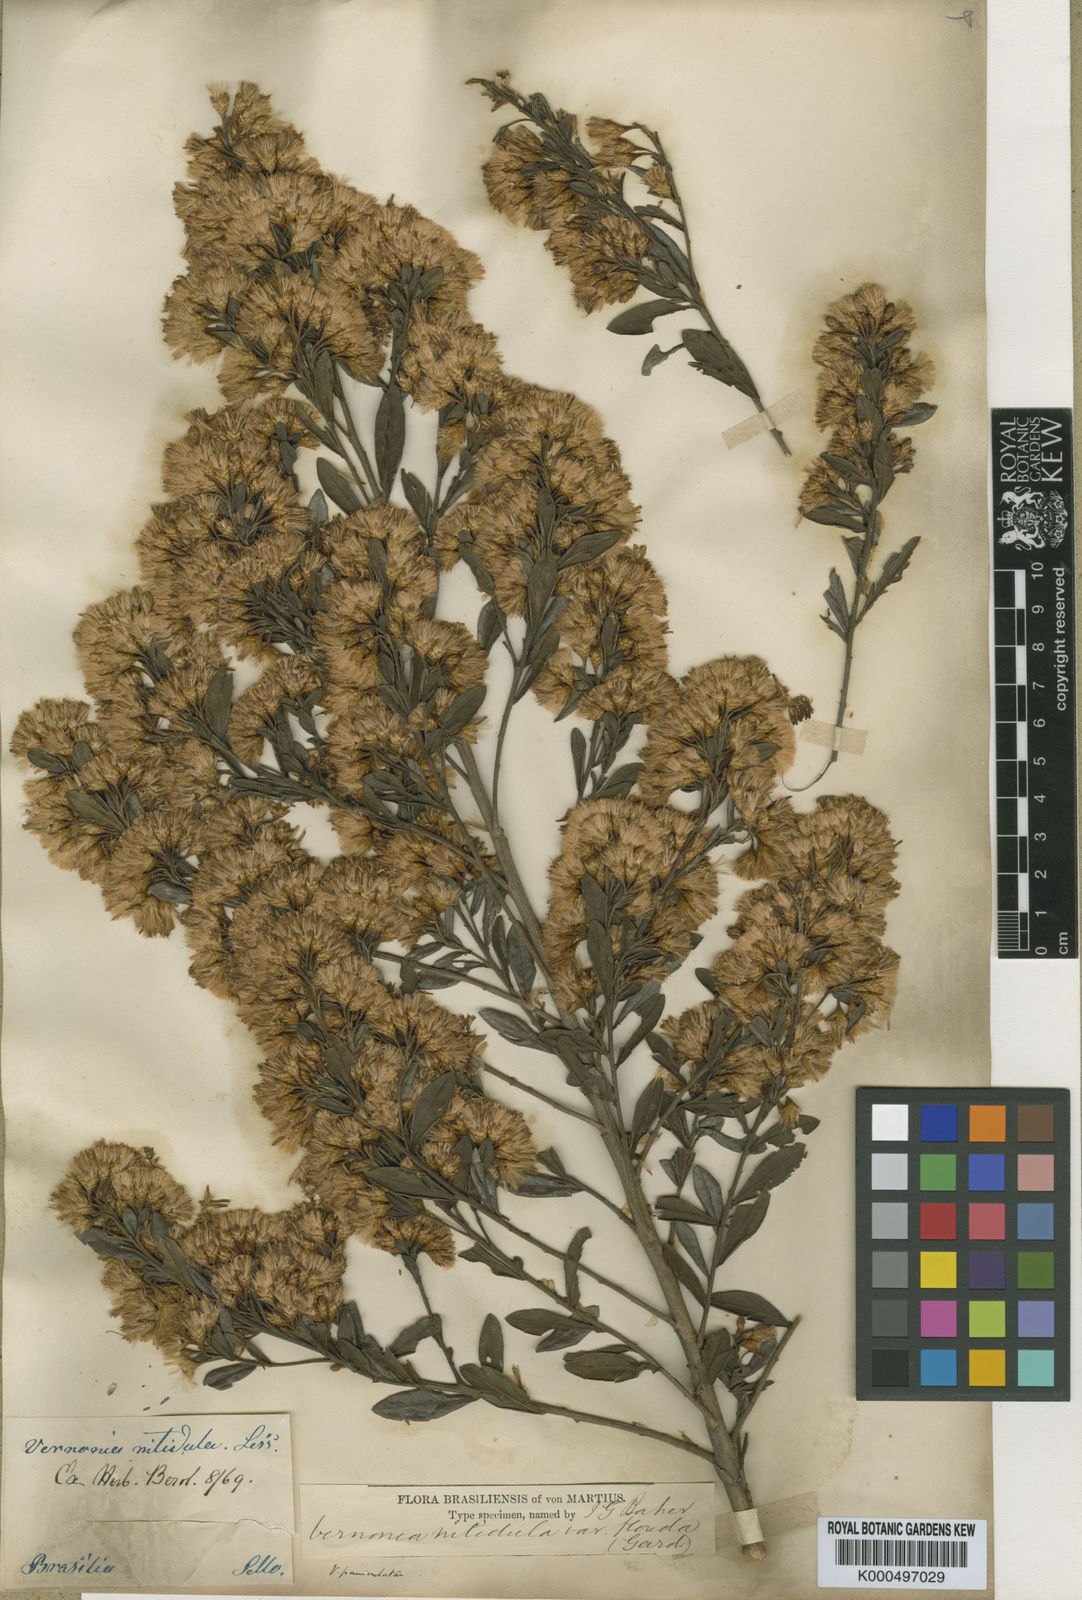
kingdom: Plantae
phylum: Tracheophyta
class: Magnoliopsida
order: Asterales
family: Asteraceae
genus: Vernonanthura
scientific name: Vernonanthura montevidensis
